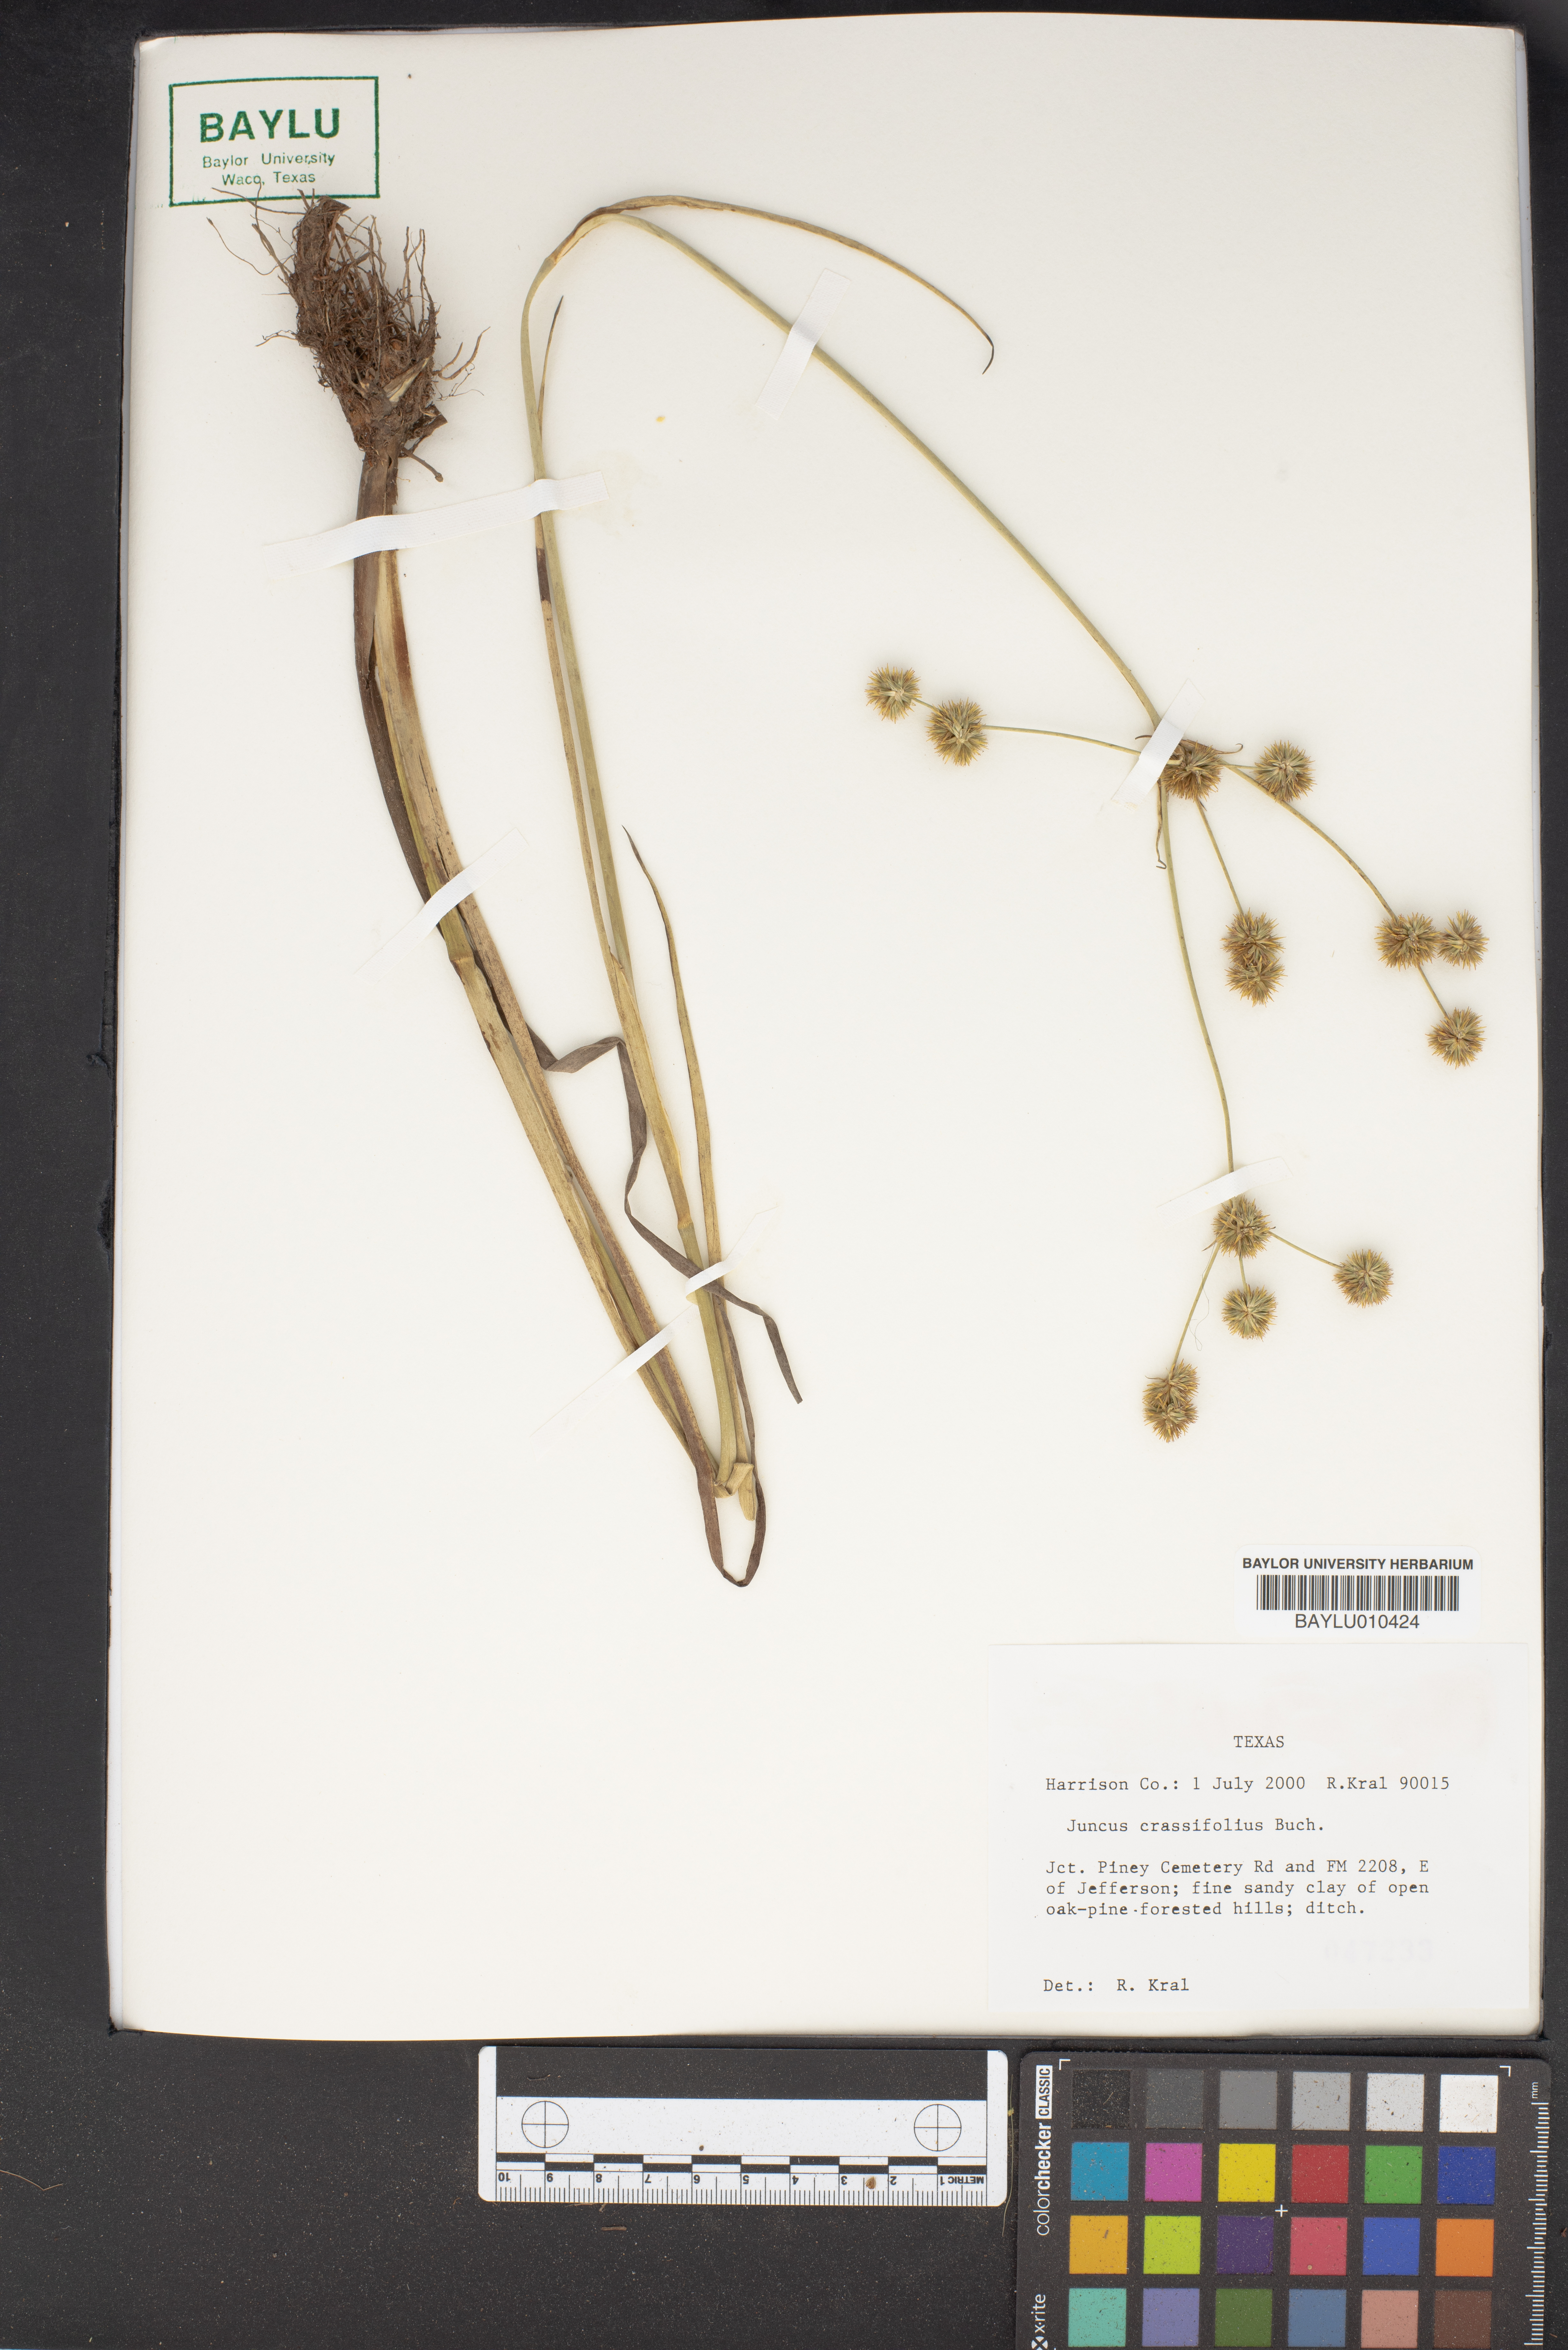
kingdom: Plantae
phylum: Tracheophyta
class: Liliopsida
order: Poales
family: Juncaceae
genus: Juncus
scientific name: Juncus validus
